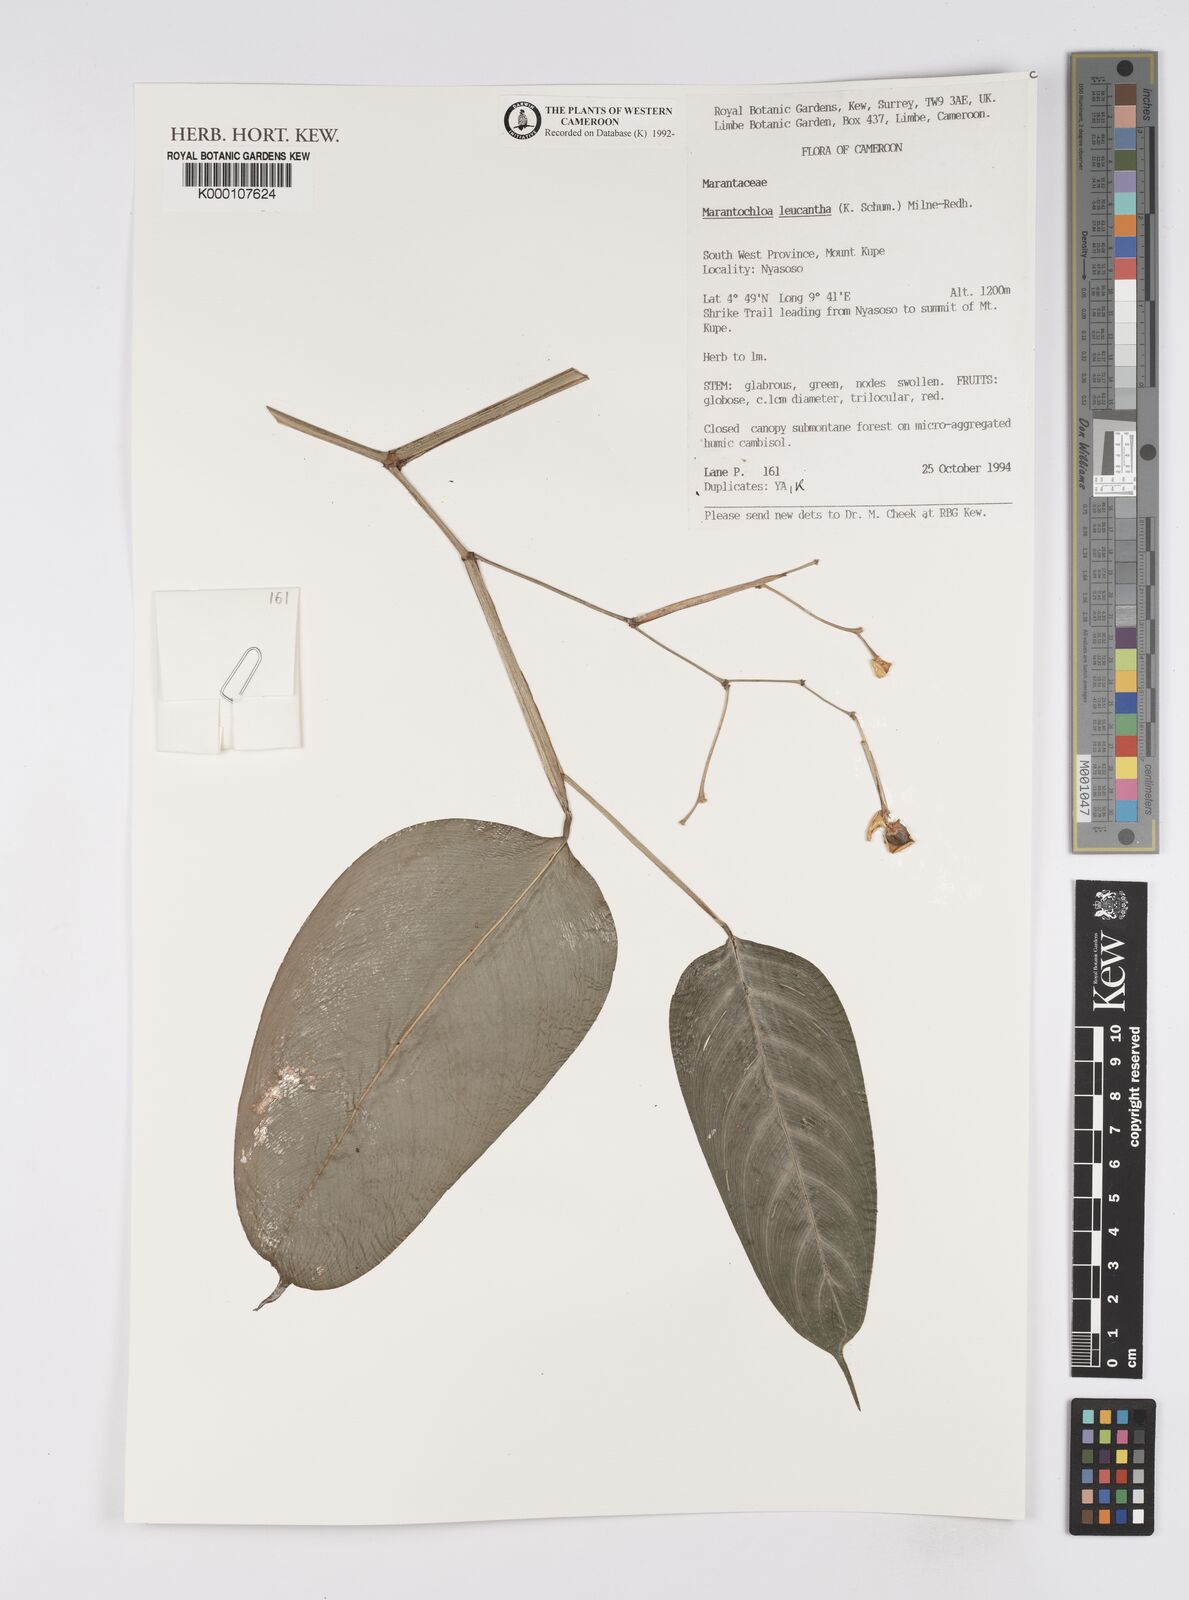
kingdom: Plantae
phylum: Tracheophyta
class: Liliopsida
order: Zingiberales
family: Marantaceae
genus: Marantochloa
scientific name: Marantochloa leucantha
